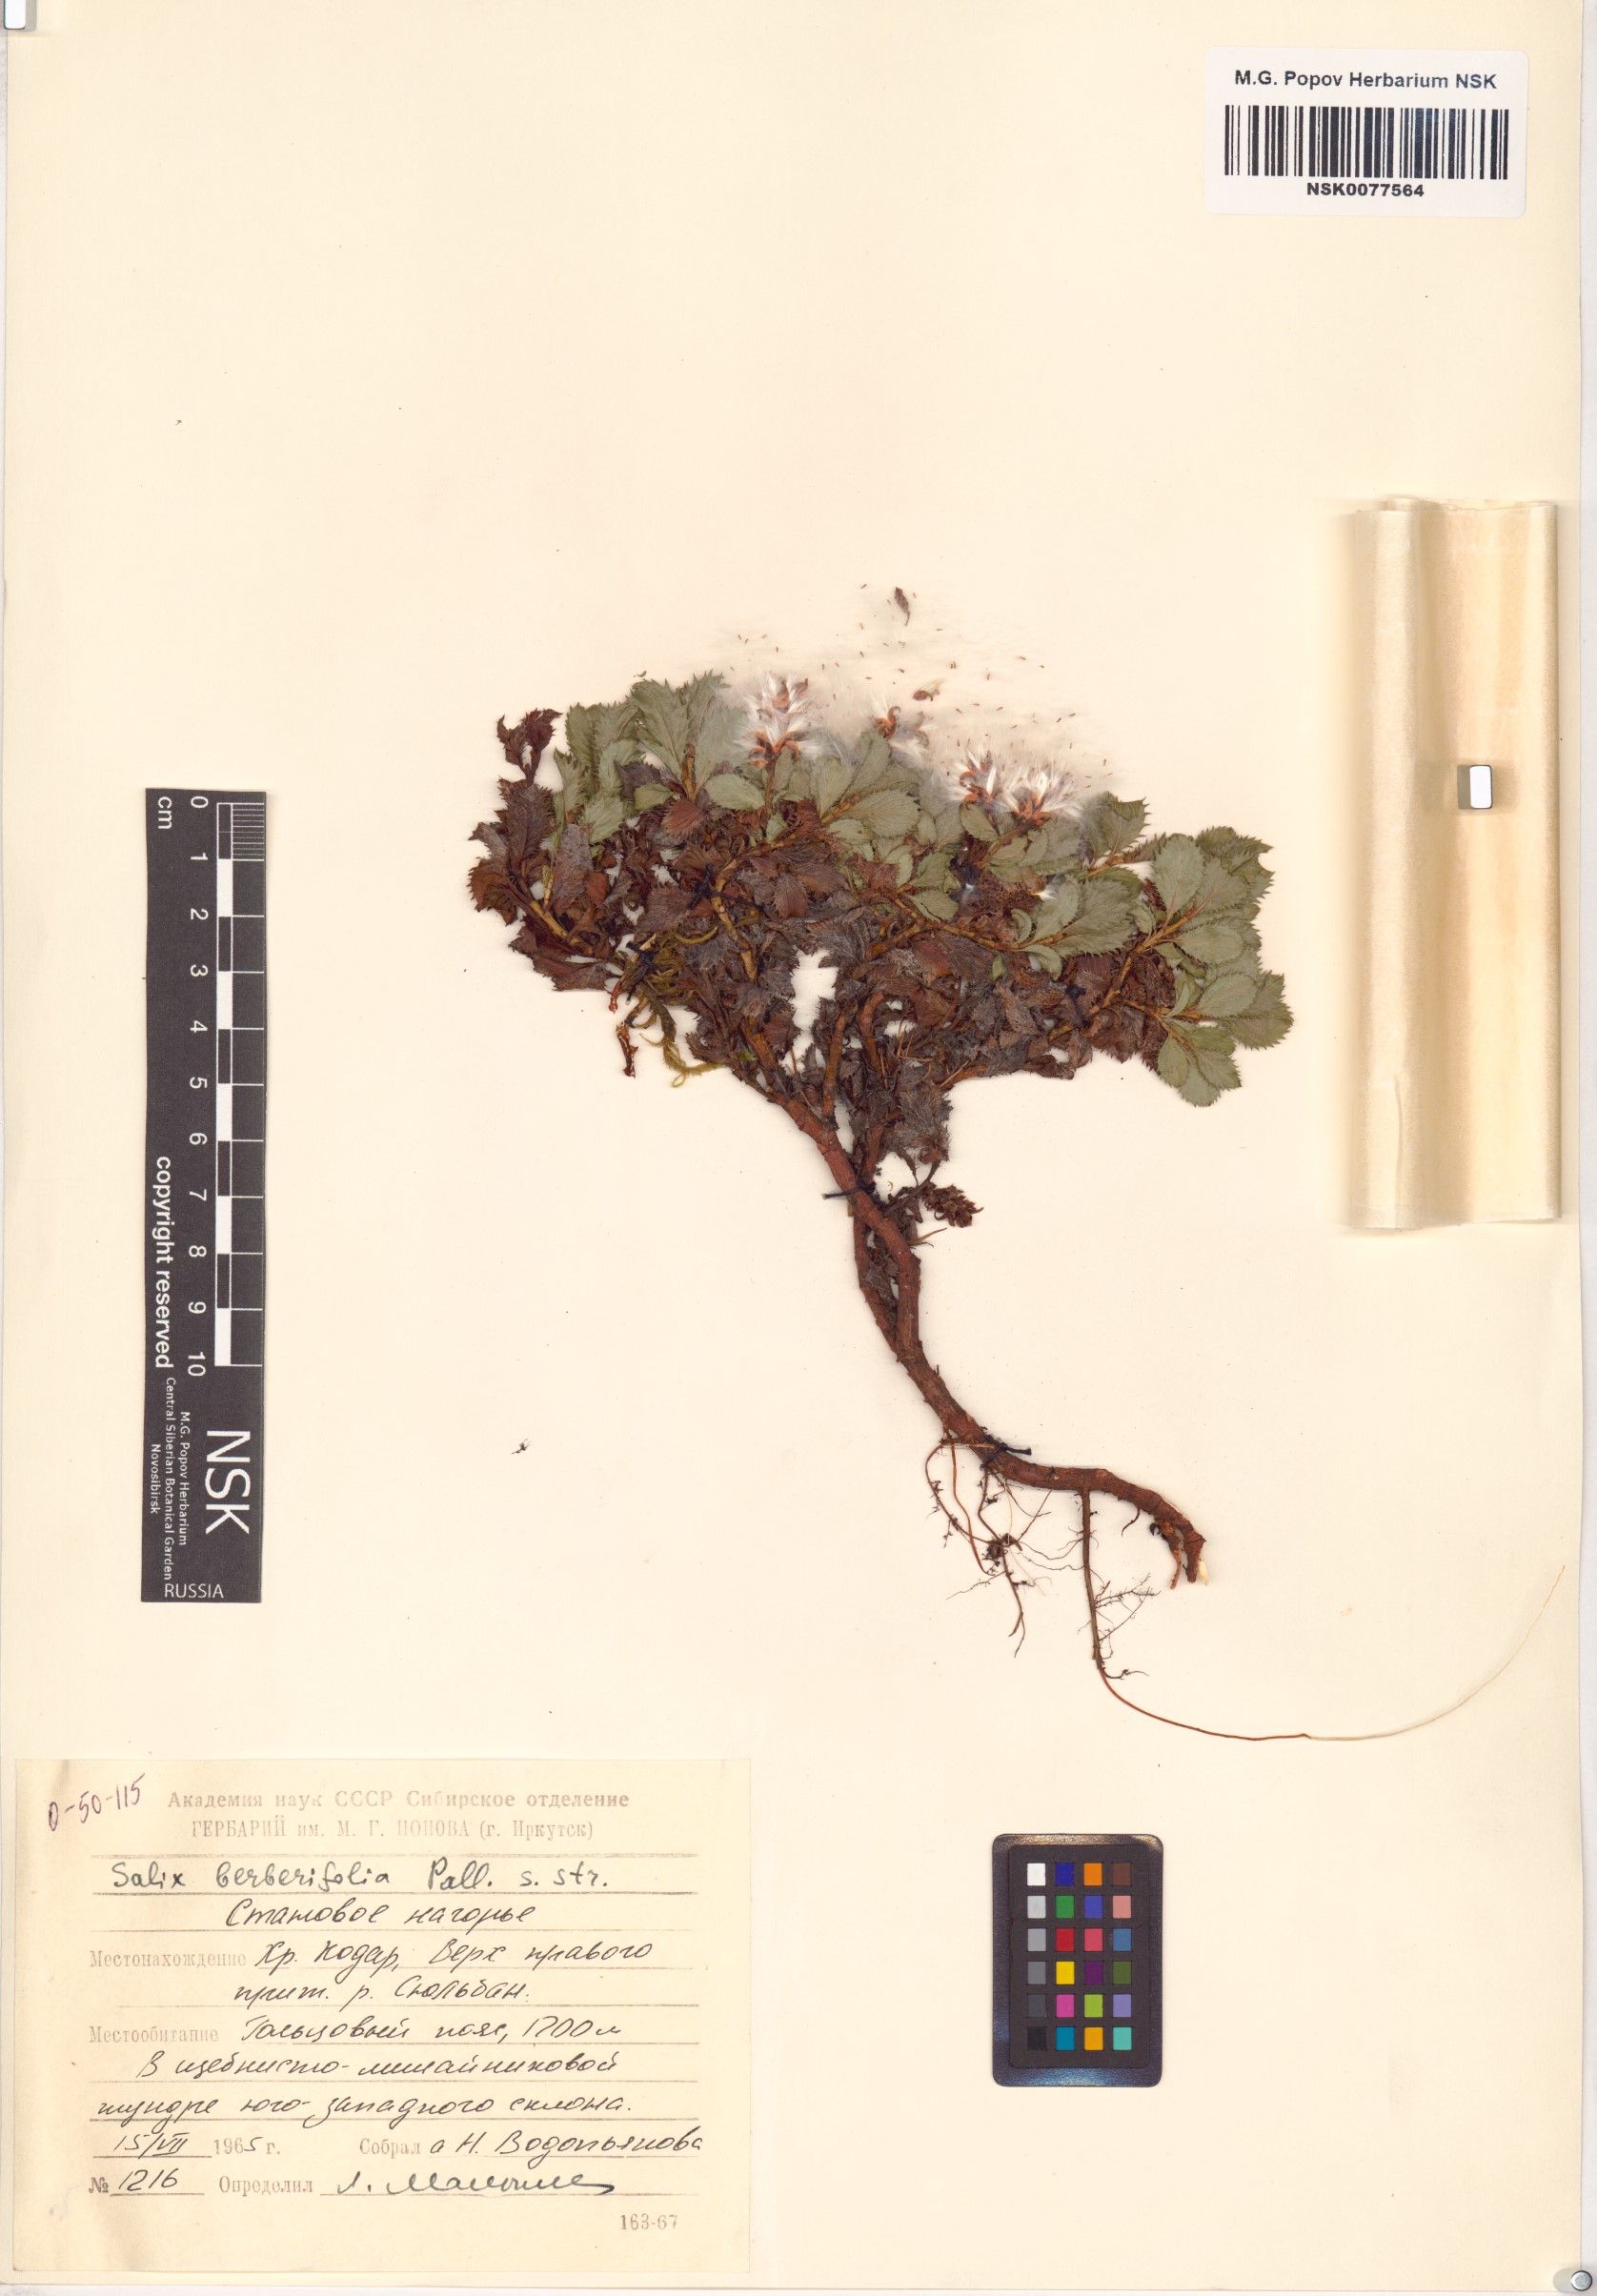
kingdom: Plantae
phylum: Tracheophyta
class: Magnoliopsida
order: Malpighiales
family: Salicaceae
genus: Salix
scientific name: Salix berberifolia
